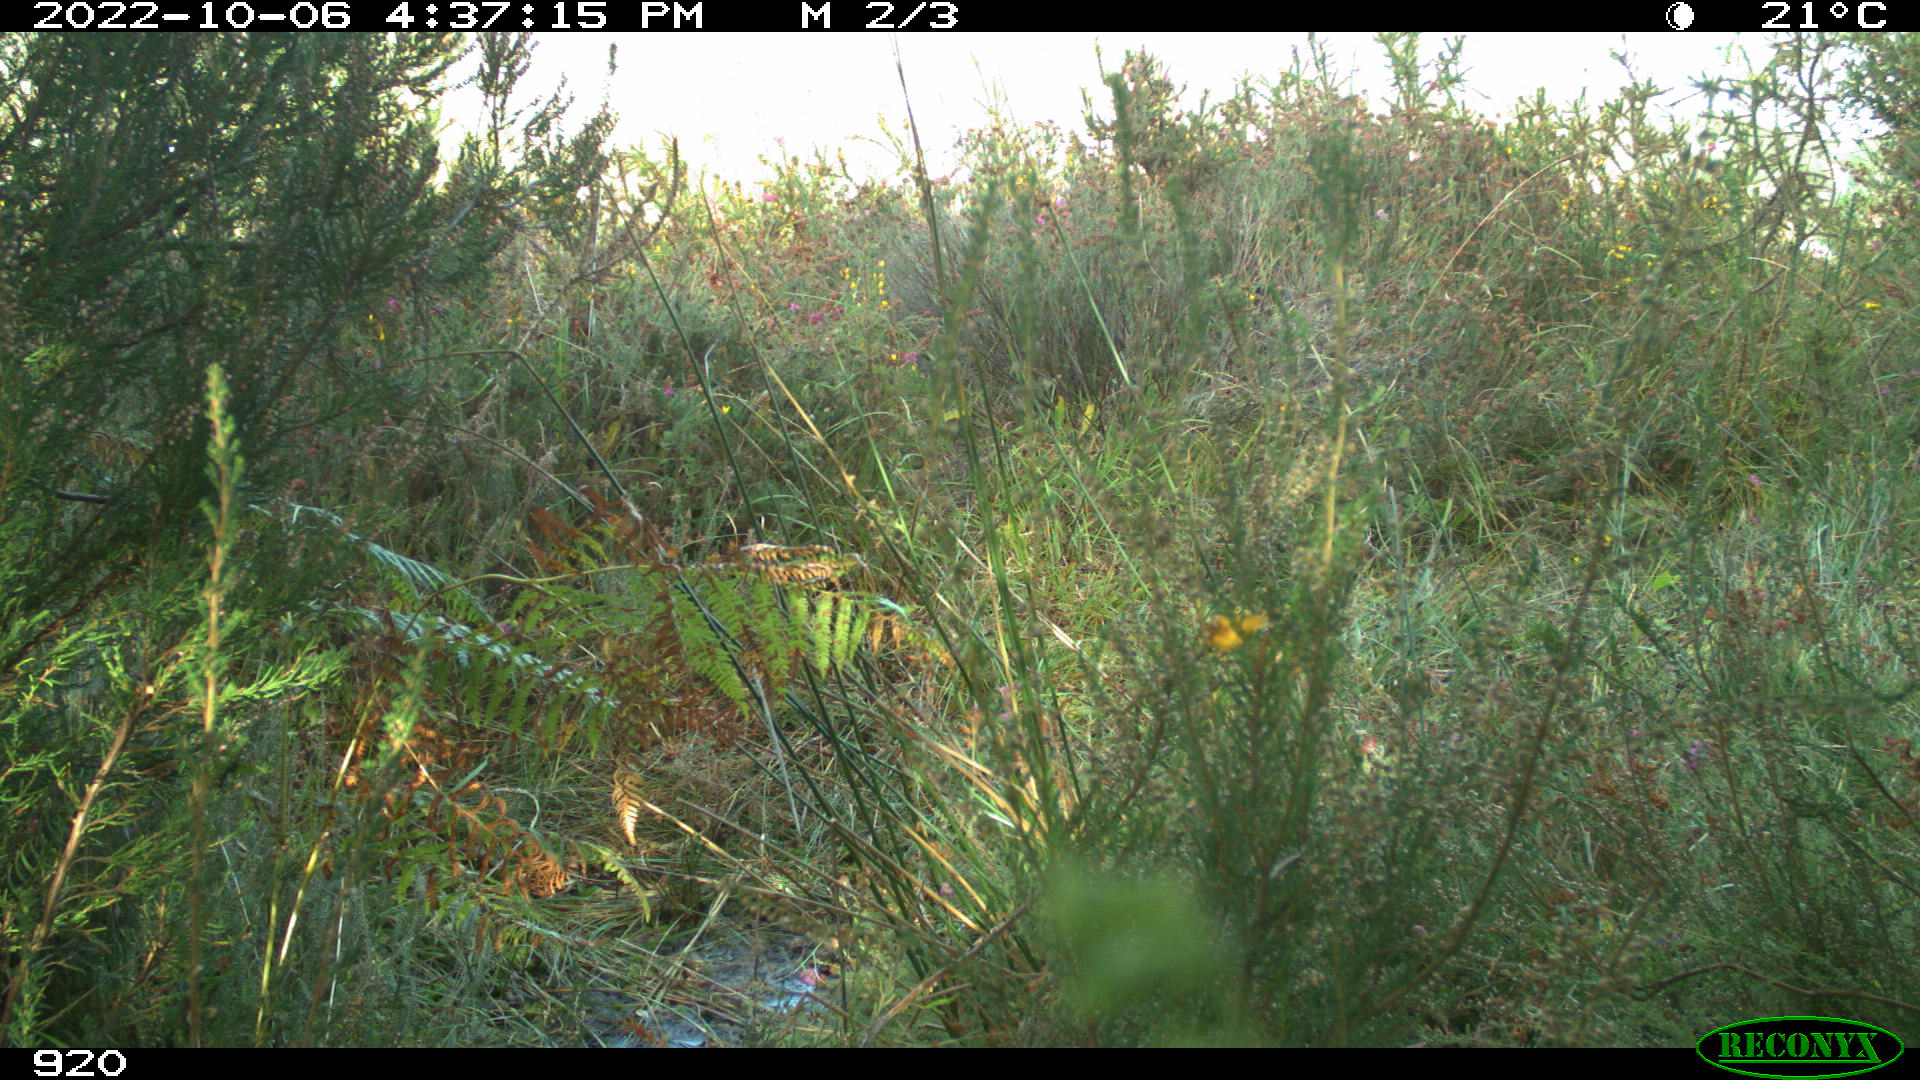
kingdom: Animalia
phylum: Chordata
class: Mammalia
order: Artiodactyla
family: Suidae
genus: Sus
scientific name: Sus scrofa
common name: Wild boar
